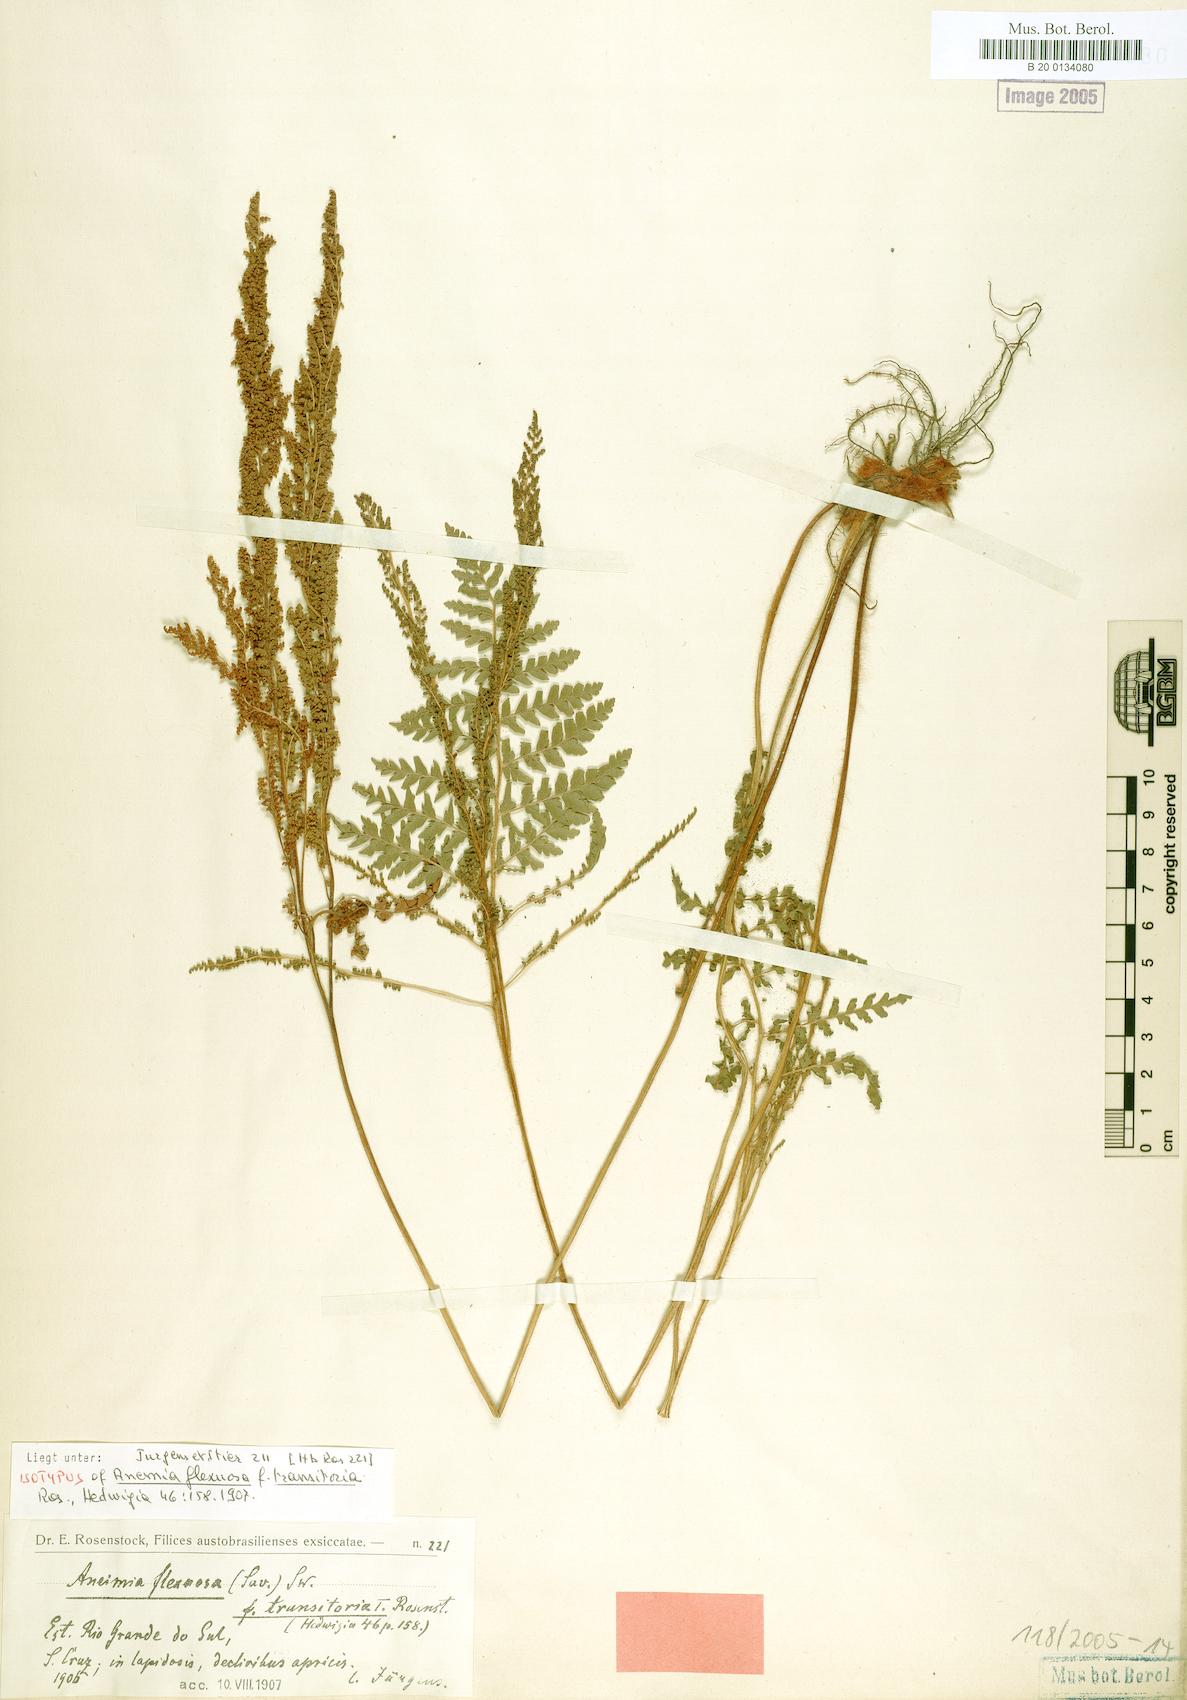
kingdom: Plantae
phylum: Tracheophyta
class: Polypodiopsida
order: Schizaeales
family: Anemiaceae
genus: Anemia
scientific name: Anemia flexuosa
